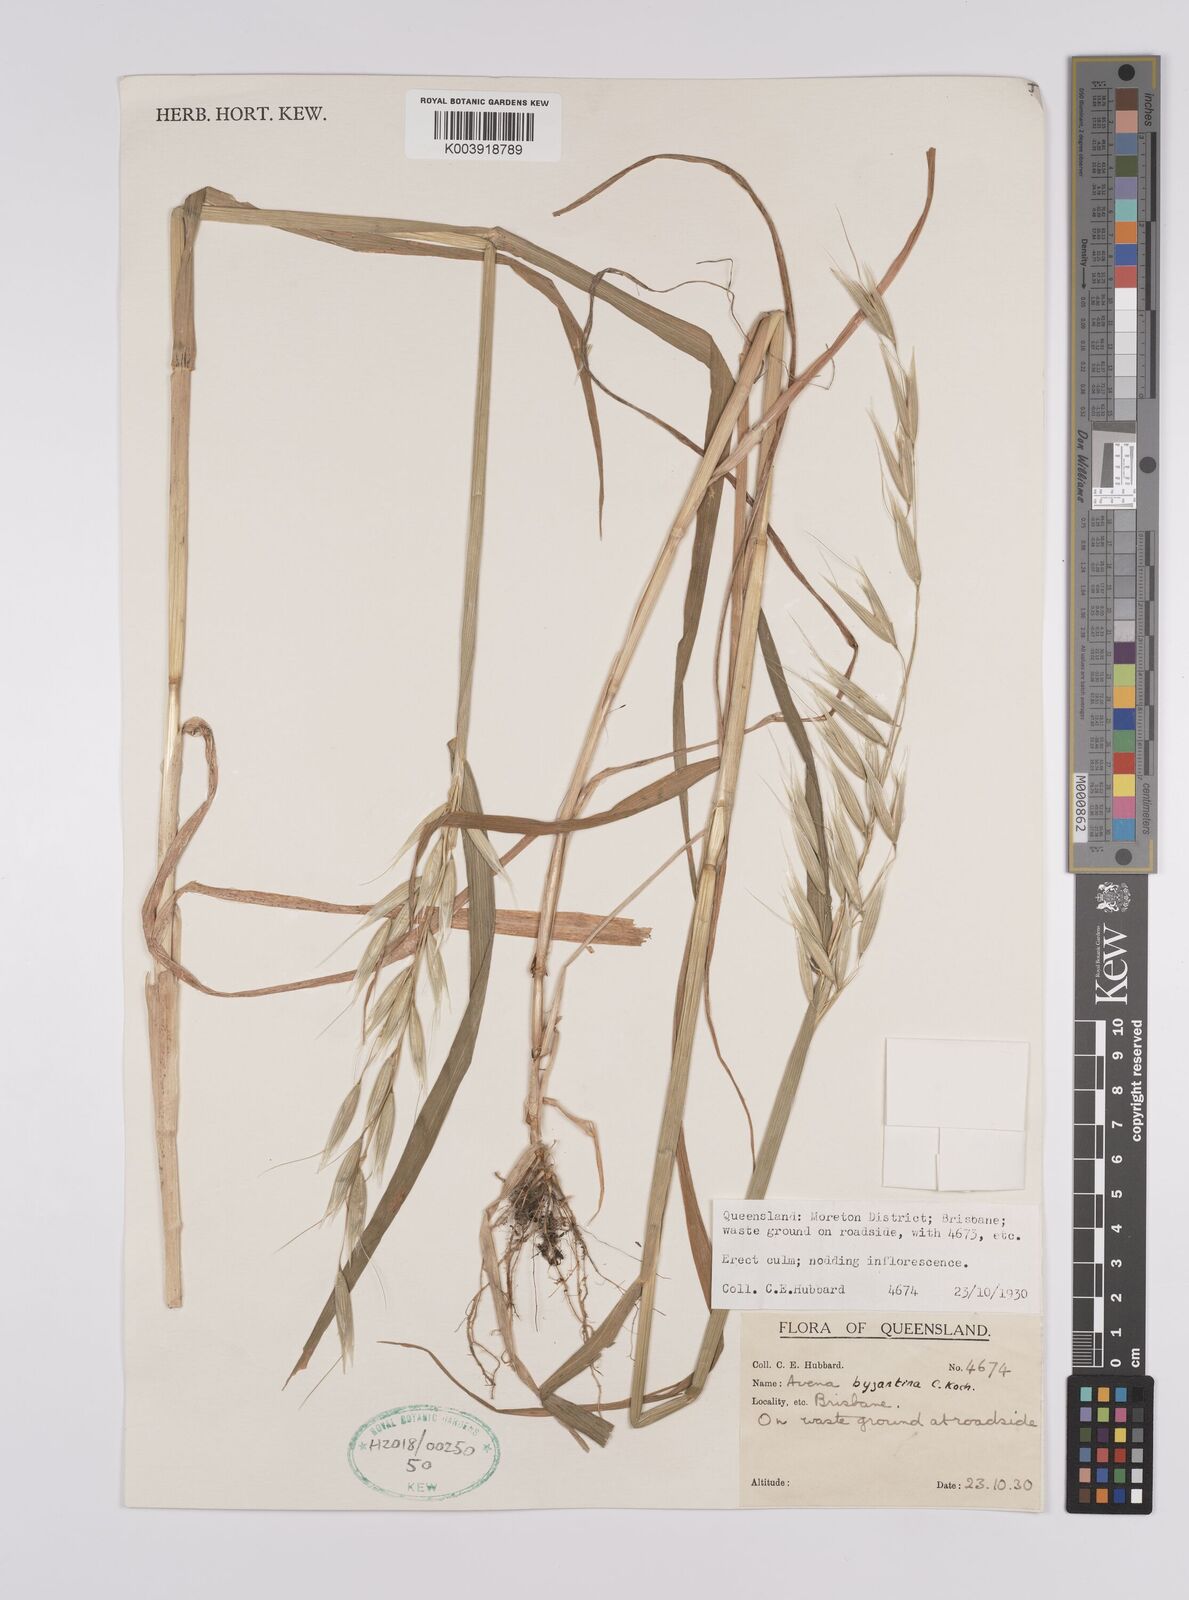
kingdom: Plantae
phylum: Tracheophyta
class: Liliopsida
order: Poales
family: Poaceae
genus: Avena
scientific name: Avena byzantina
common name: Algerian oat
